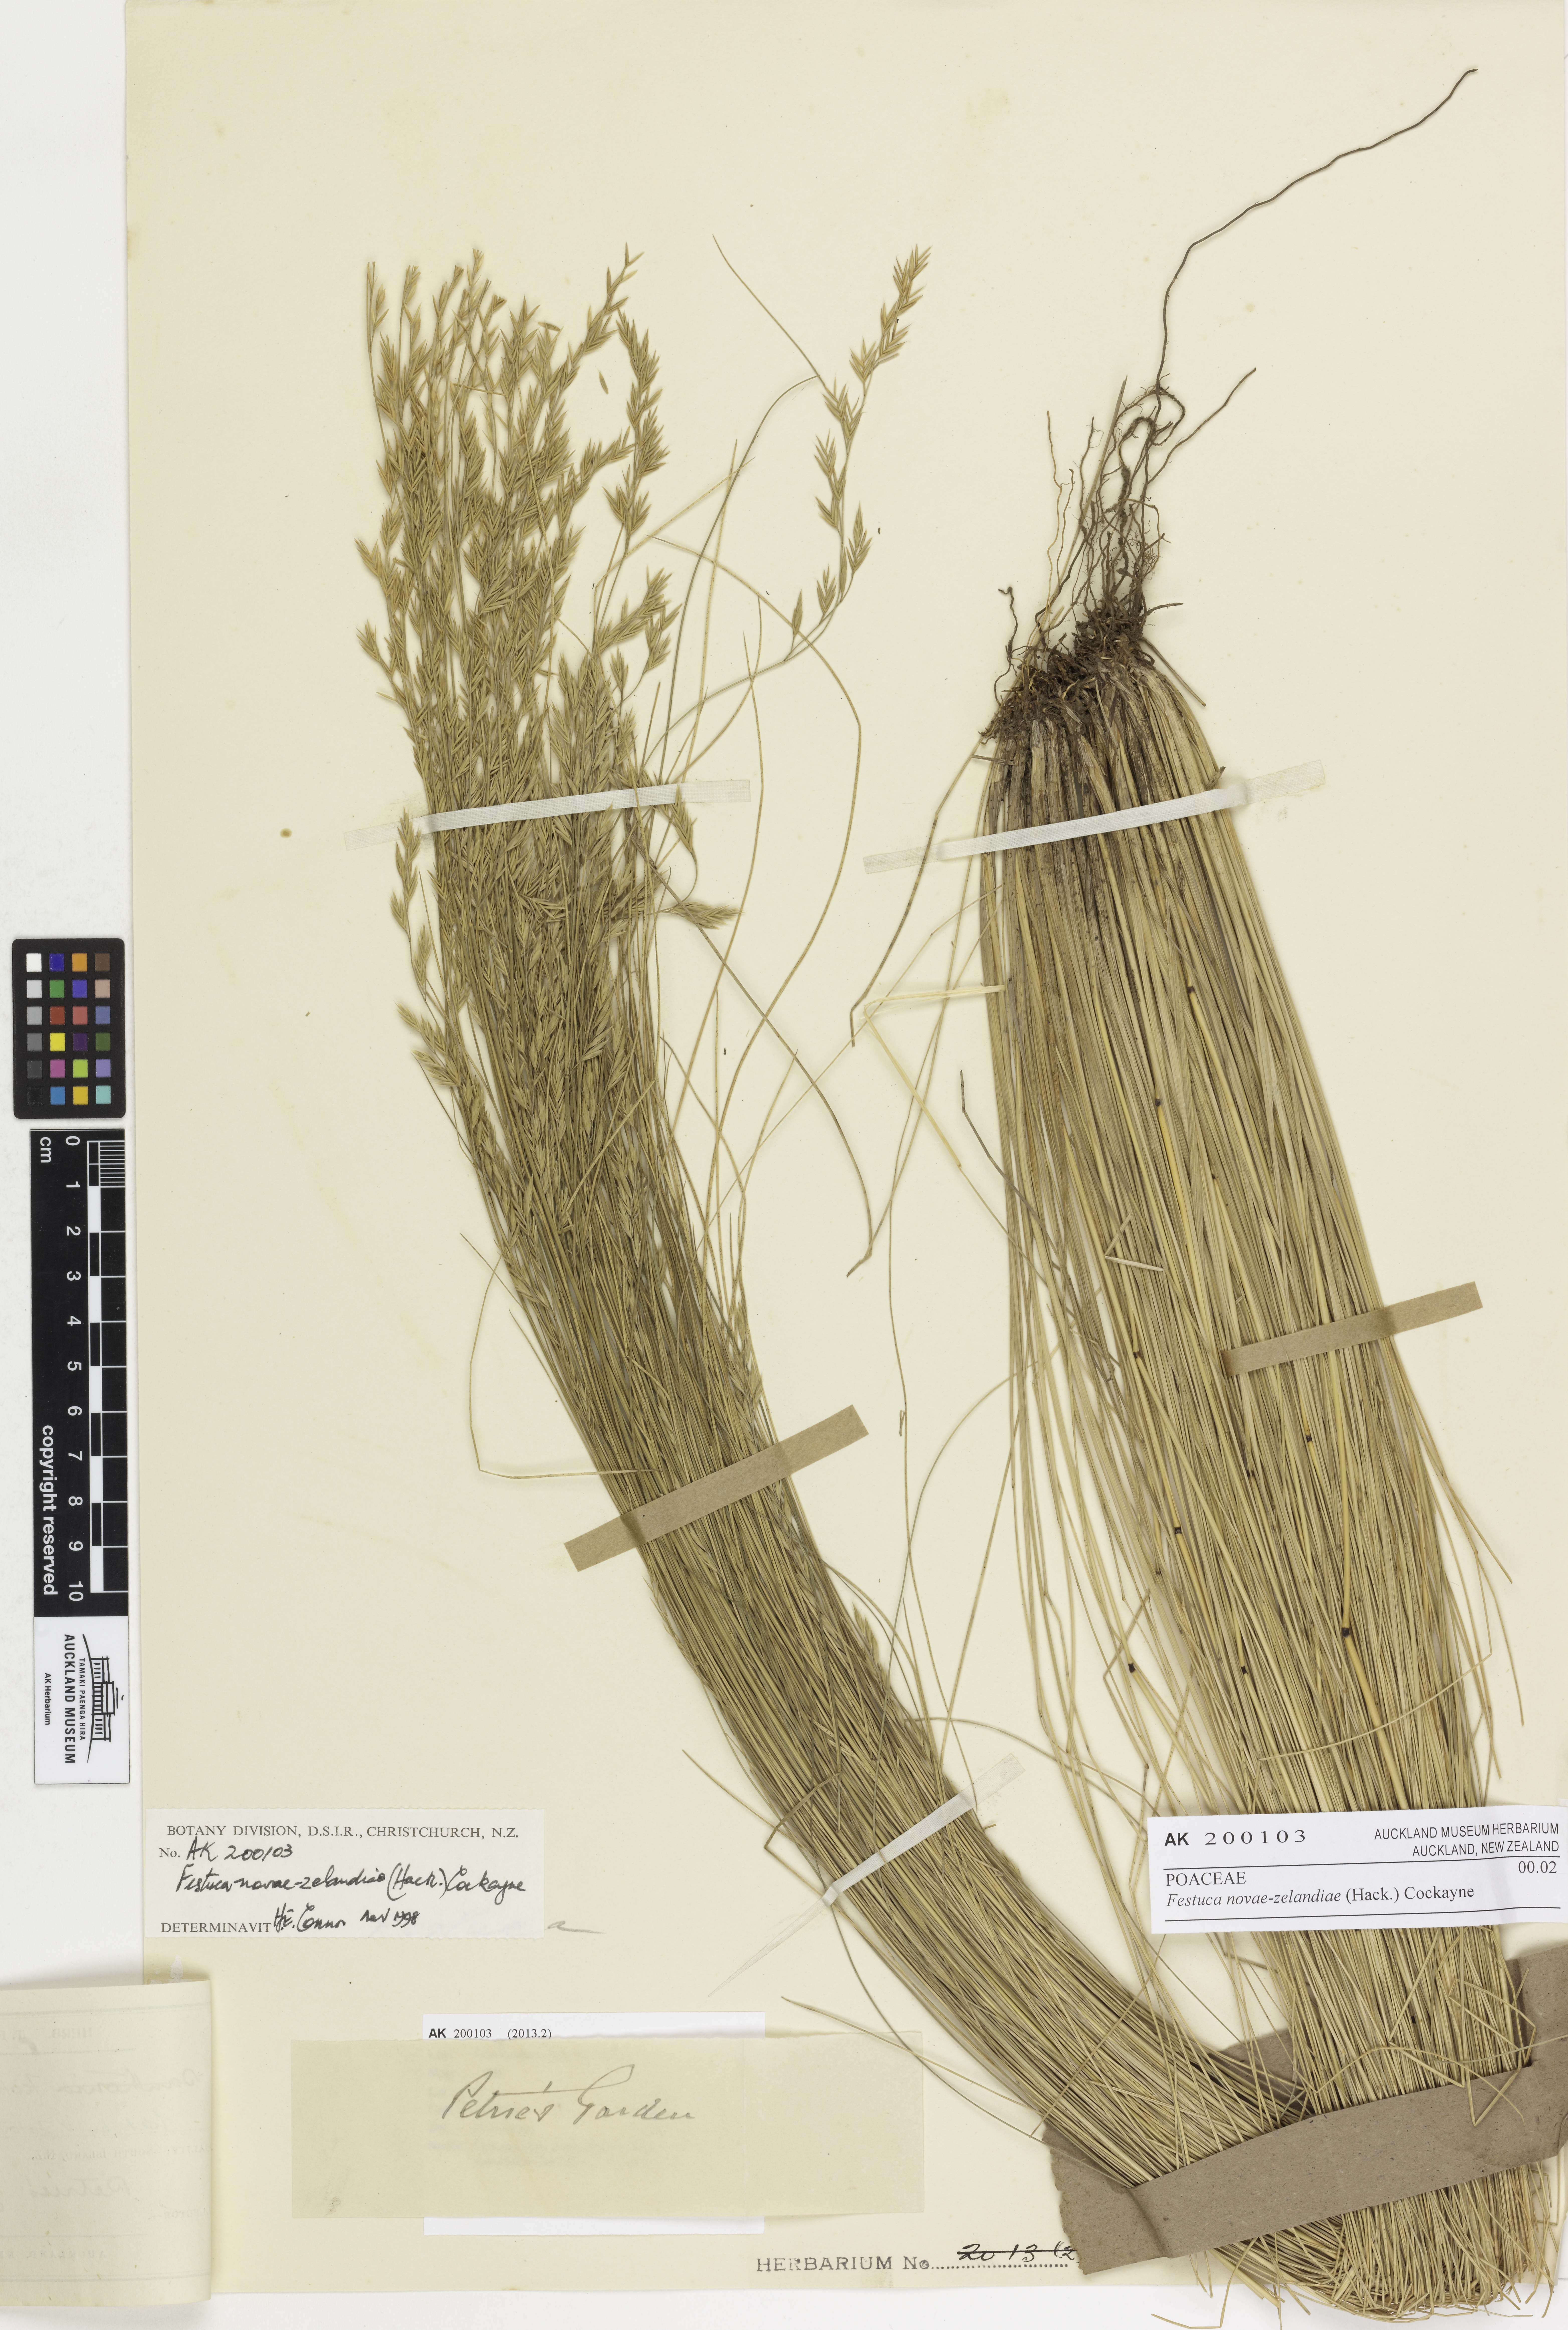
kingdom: Plantae
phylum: Tracheophyta
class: Liliopsida
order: Poales
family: Poaceae
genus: Festuca
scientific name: Festuca novae-zelandiae
